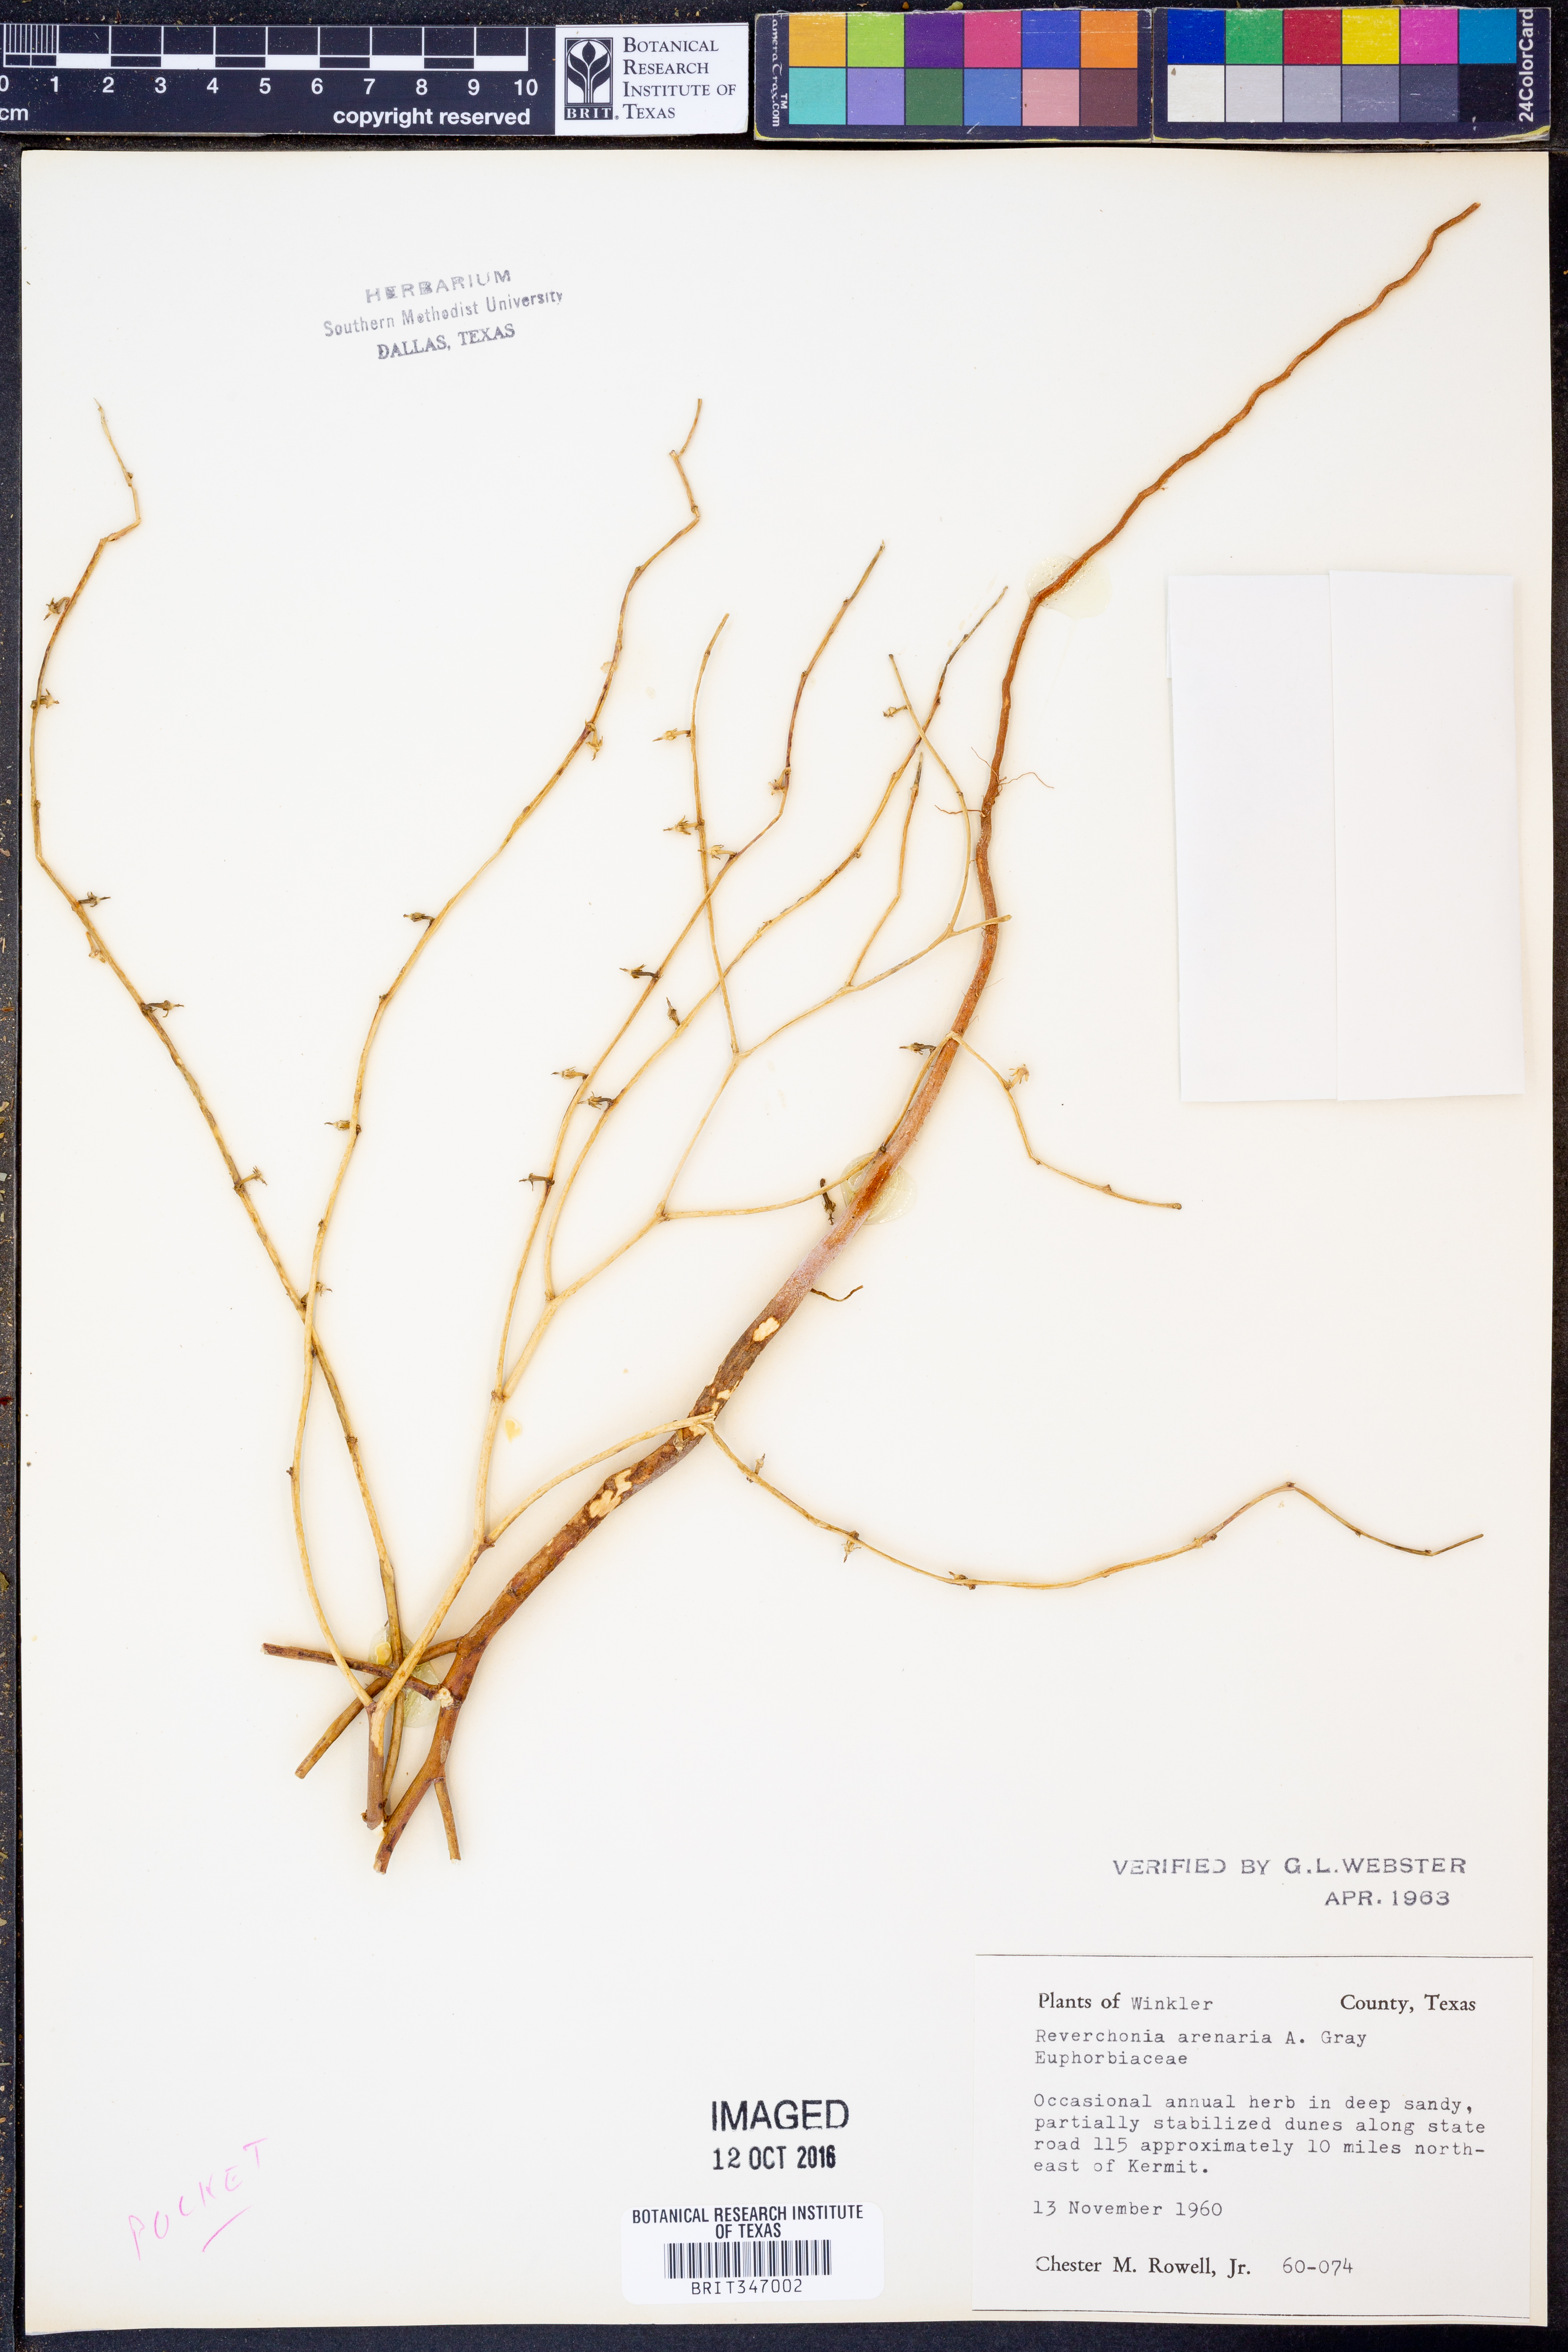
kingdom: Plantae
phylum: Tracheophyta
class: Magnoliopsida
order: Malpighiales
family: Phyllanthaceae
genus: Phyllanthus
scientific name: Phyllanthus warnockii
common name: Sand reverchonia
